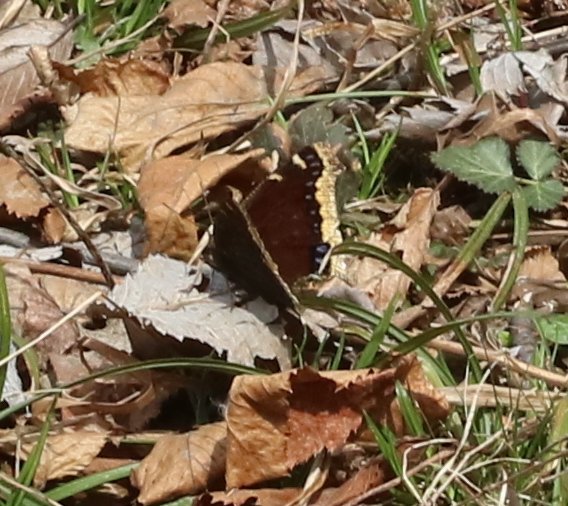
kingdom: Animalia
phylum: Arthropoda
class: Insecta
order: Lepidoptera
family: Nymphalidae
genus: Nymphalis
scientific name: Nymphalis antiopa
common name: Mourning Cloak
